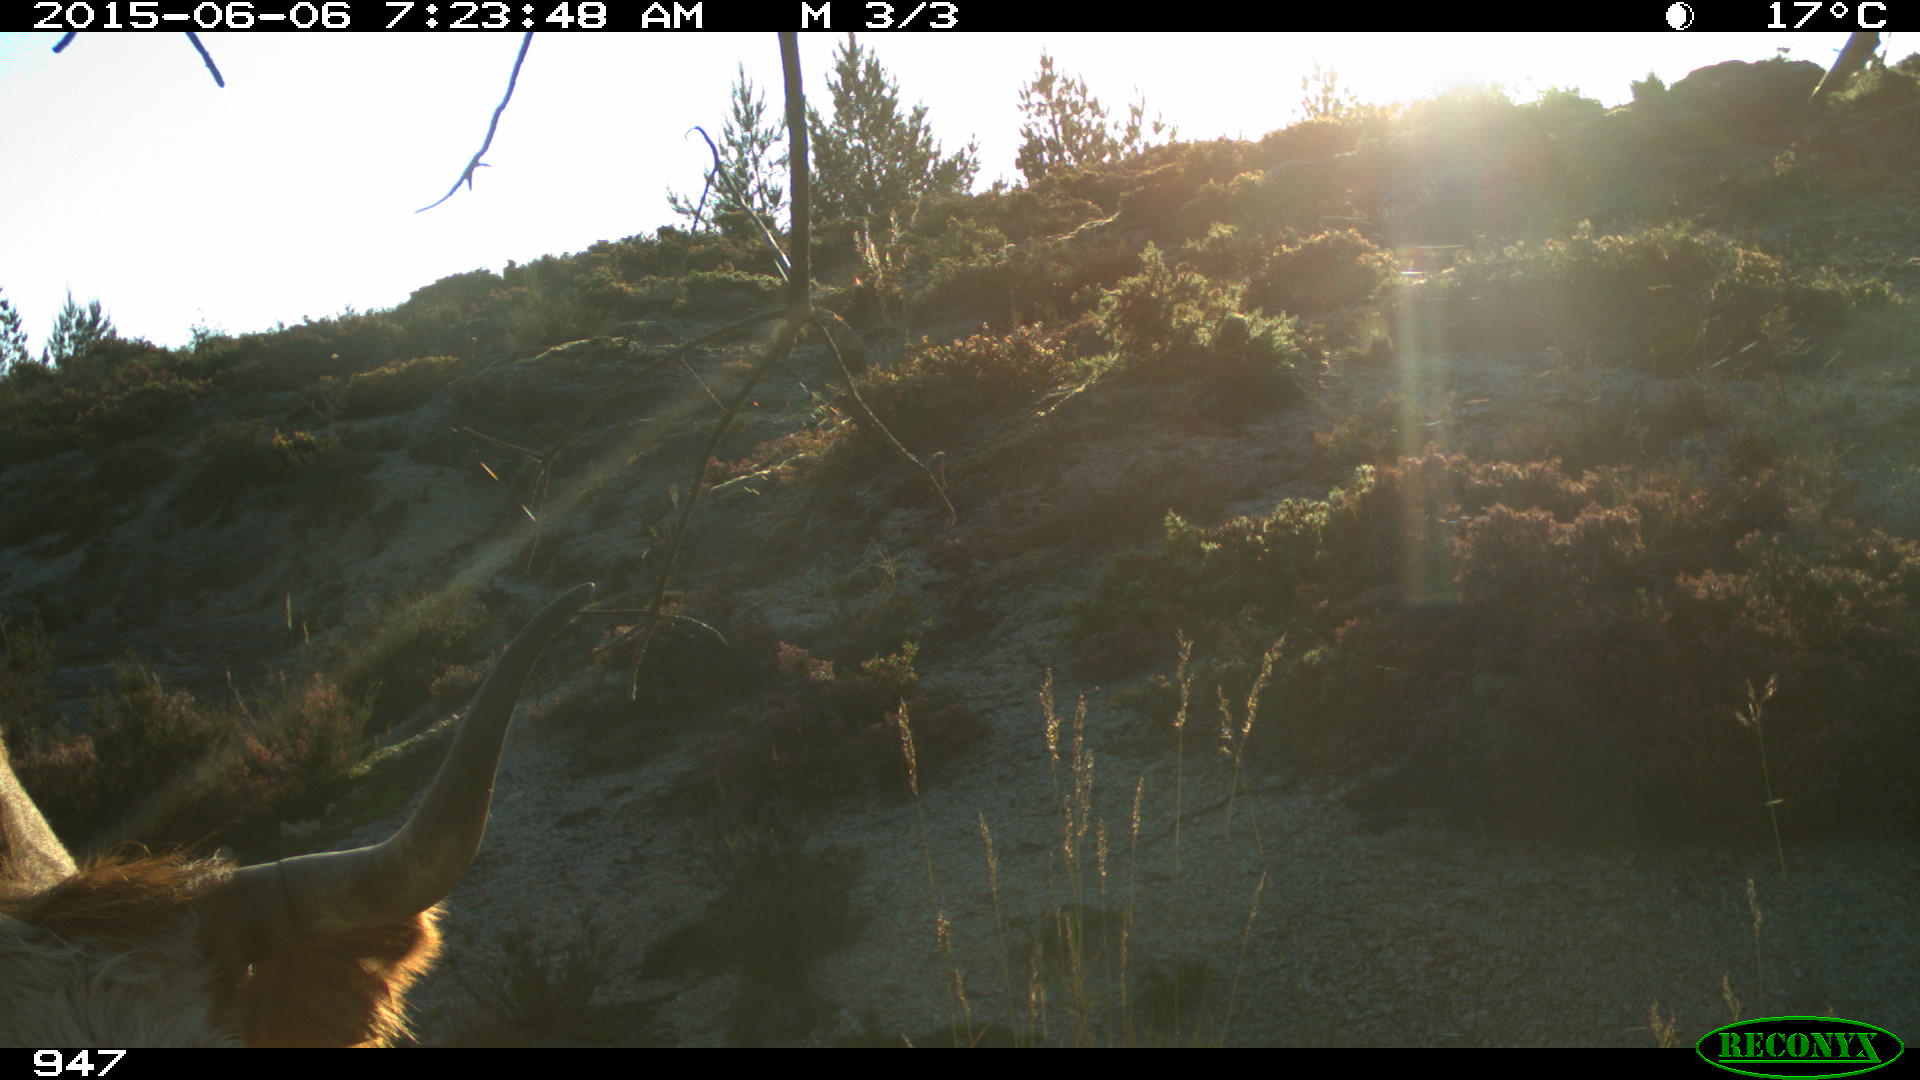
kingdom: Animalia
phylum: Chordata
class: Mammalia
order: Artiodactyla
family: Bovidae
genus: Bos
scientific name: Bos taurus
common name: Domesticated cattle
